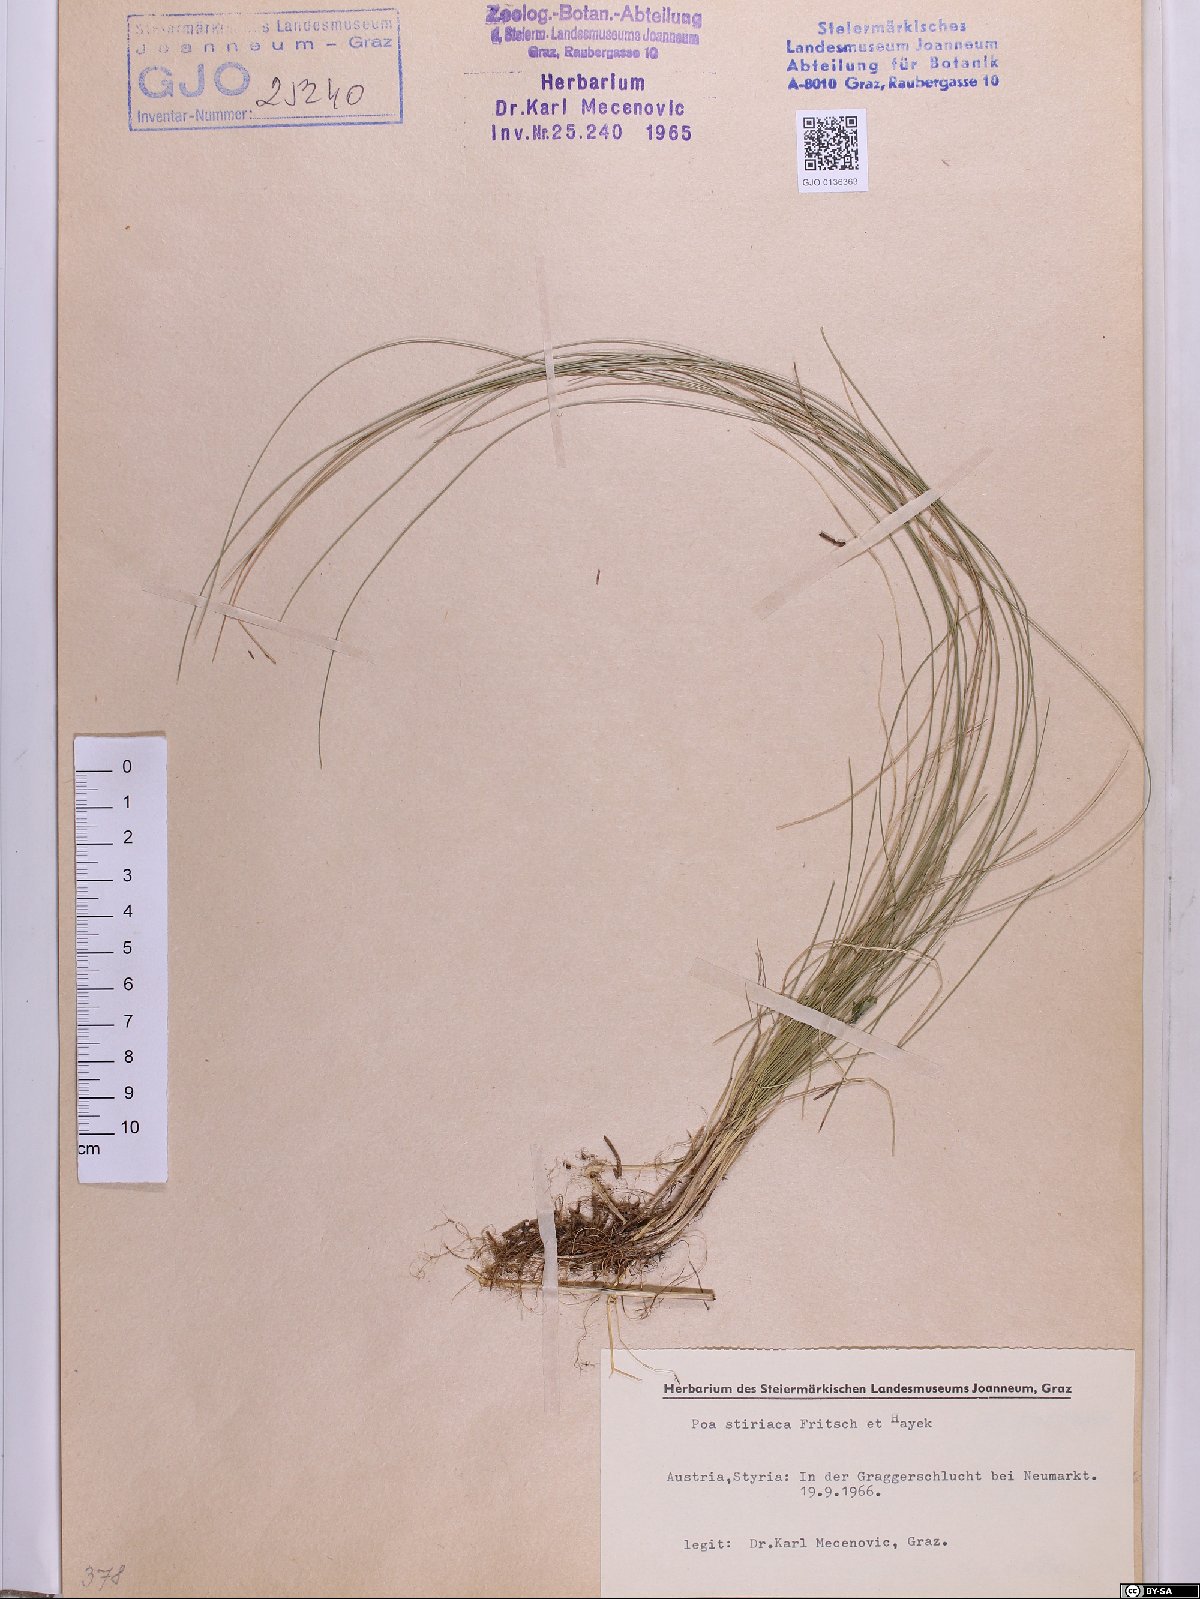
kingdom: Plantae
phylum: Tracheophyta
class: Liliopsida
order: Poales
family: Poaceae
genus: Poa
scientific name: Poa stiriaca
